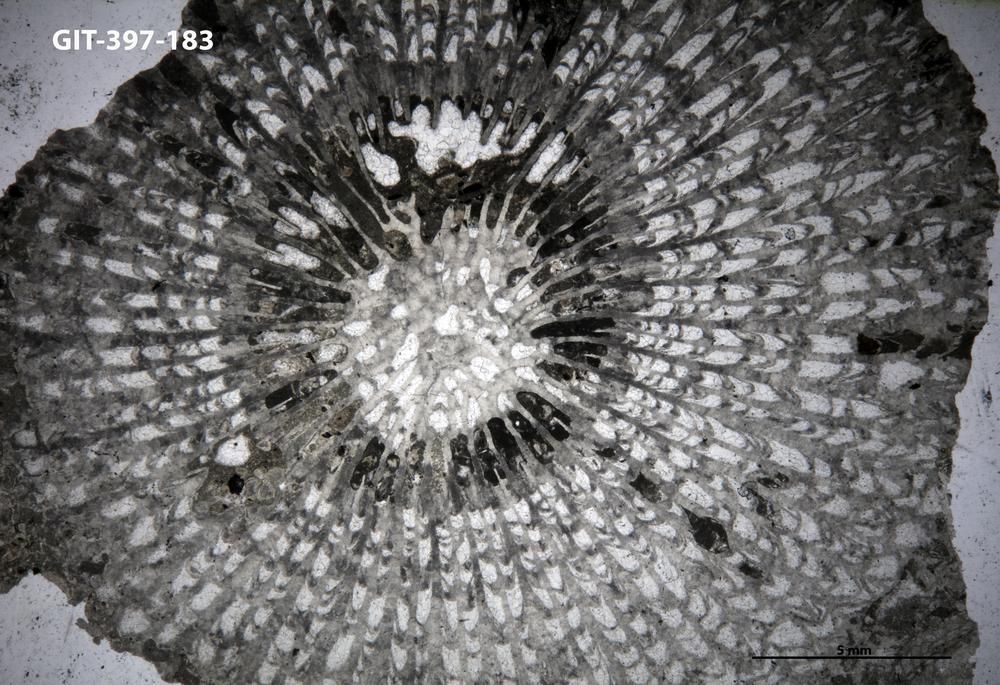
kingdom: Animalia
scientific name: Animalia
